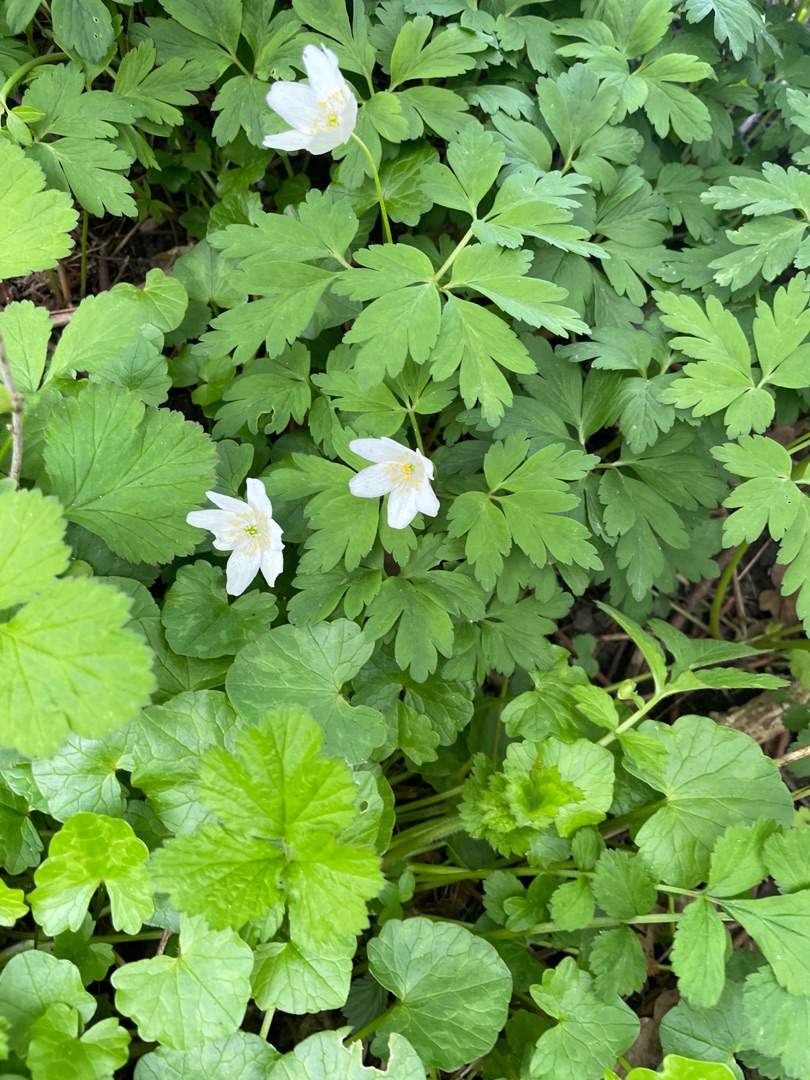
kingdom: Plantae
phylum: Tracheophyta
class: Magnoliopsida
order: Ranunculales
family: Ranunculaceae
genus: Anemone
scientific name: Anemone nemorosa
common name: Hvid anemone
